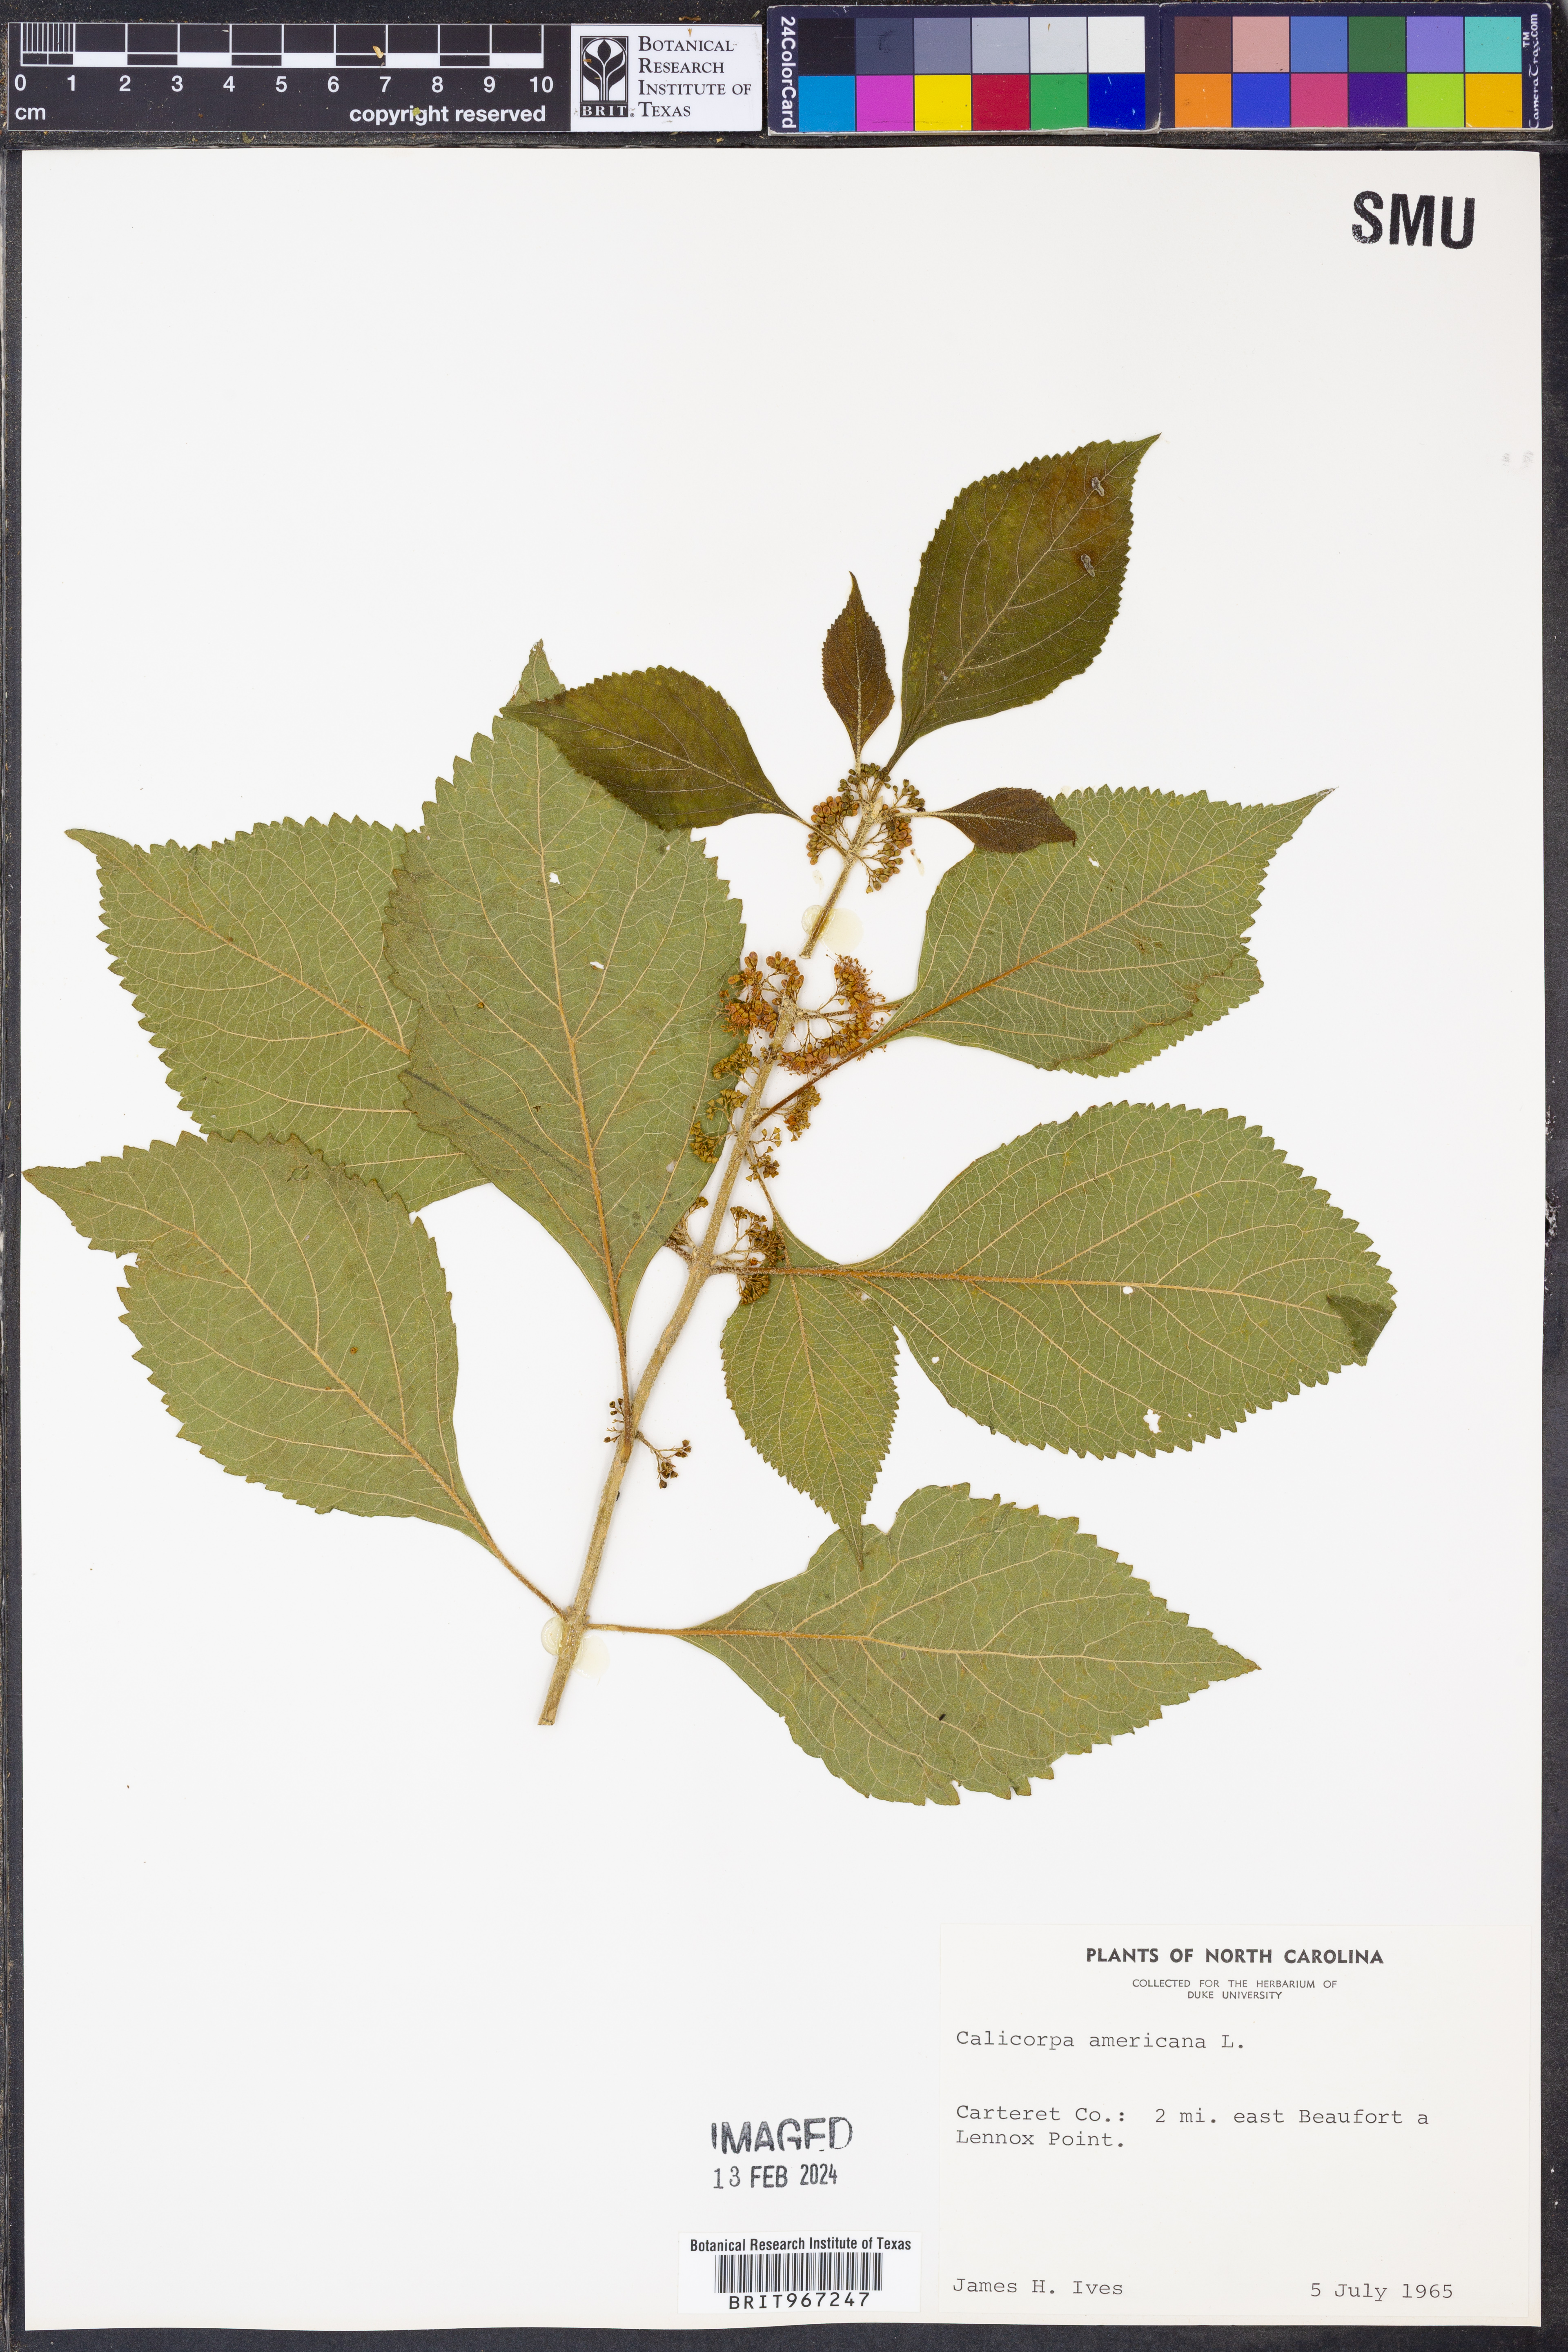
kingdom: Plantae
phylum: Tracheophyta
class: Magnoliopsida
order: Lamiales
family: Lamiaceae
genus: Callicarpa
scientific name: Callicarpa americana
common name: American beautyberry
